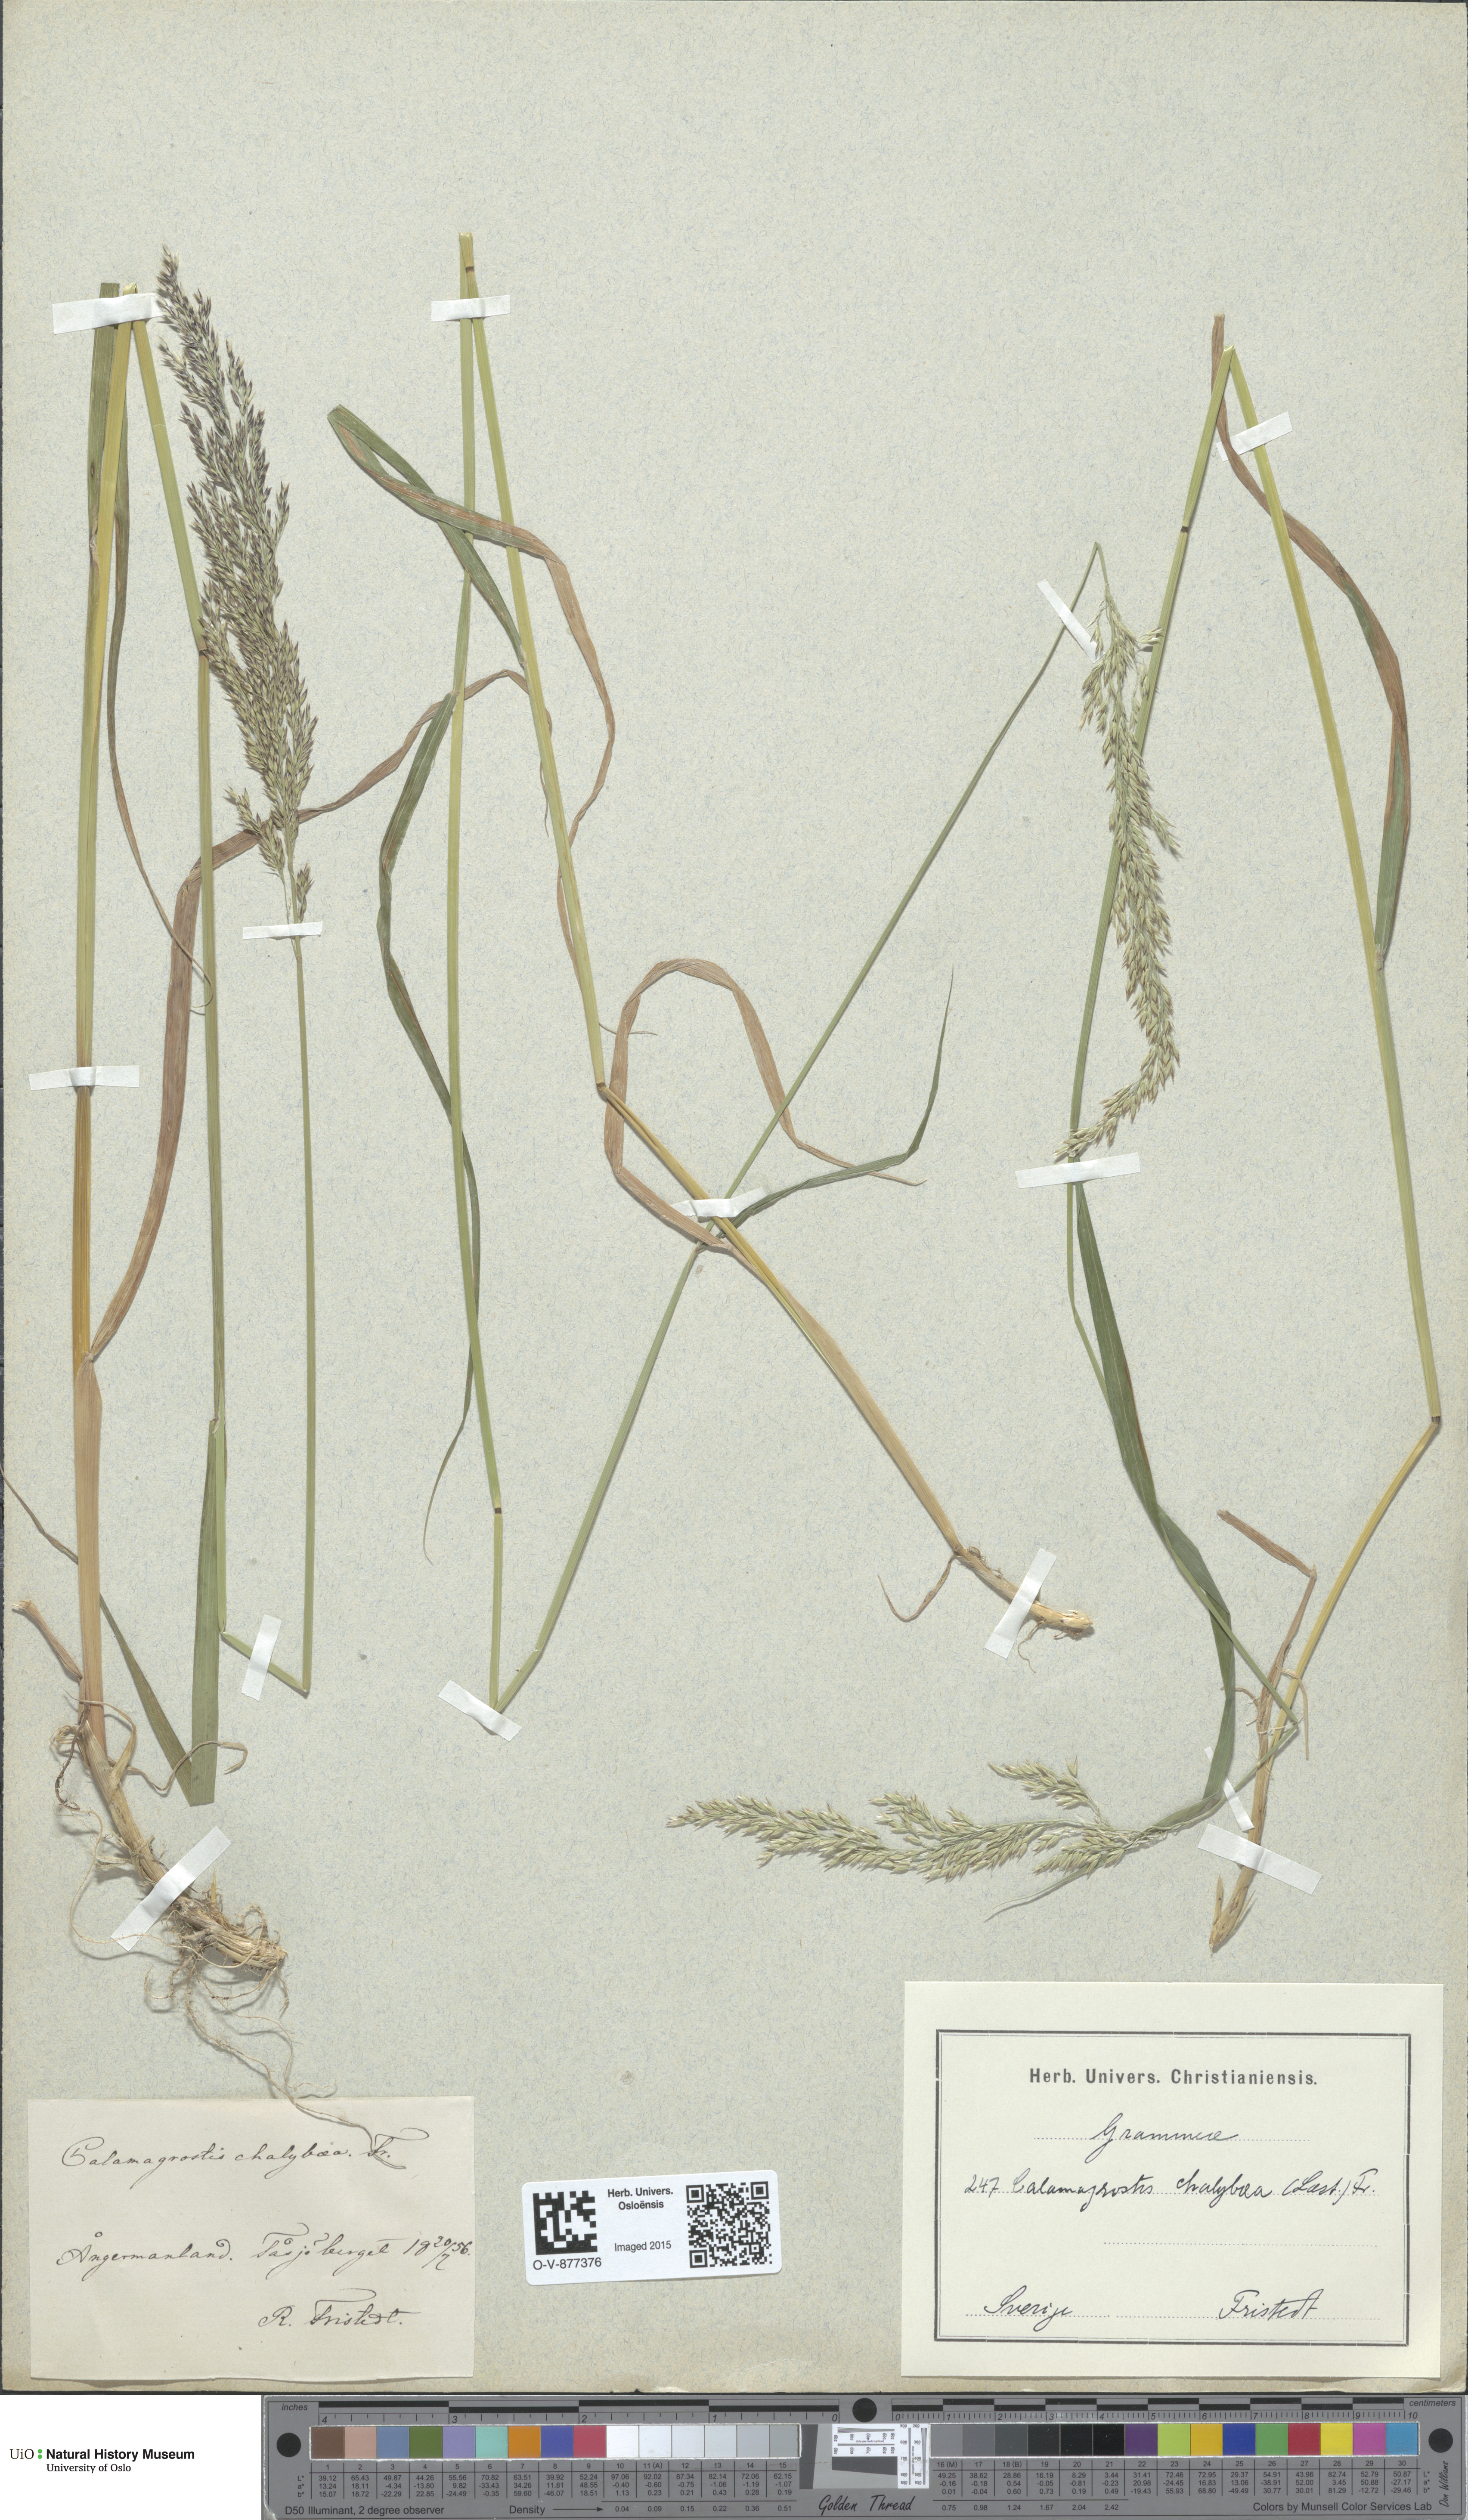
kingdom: Plantae
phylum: Tracheophyta
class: Liliopsida
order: Poales
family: Poaceae
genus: Calamagrostis
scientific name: Calamagrostis chalybaea
